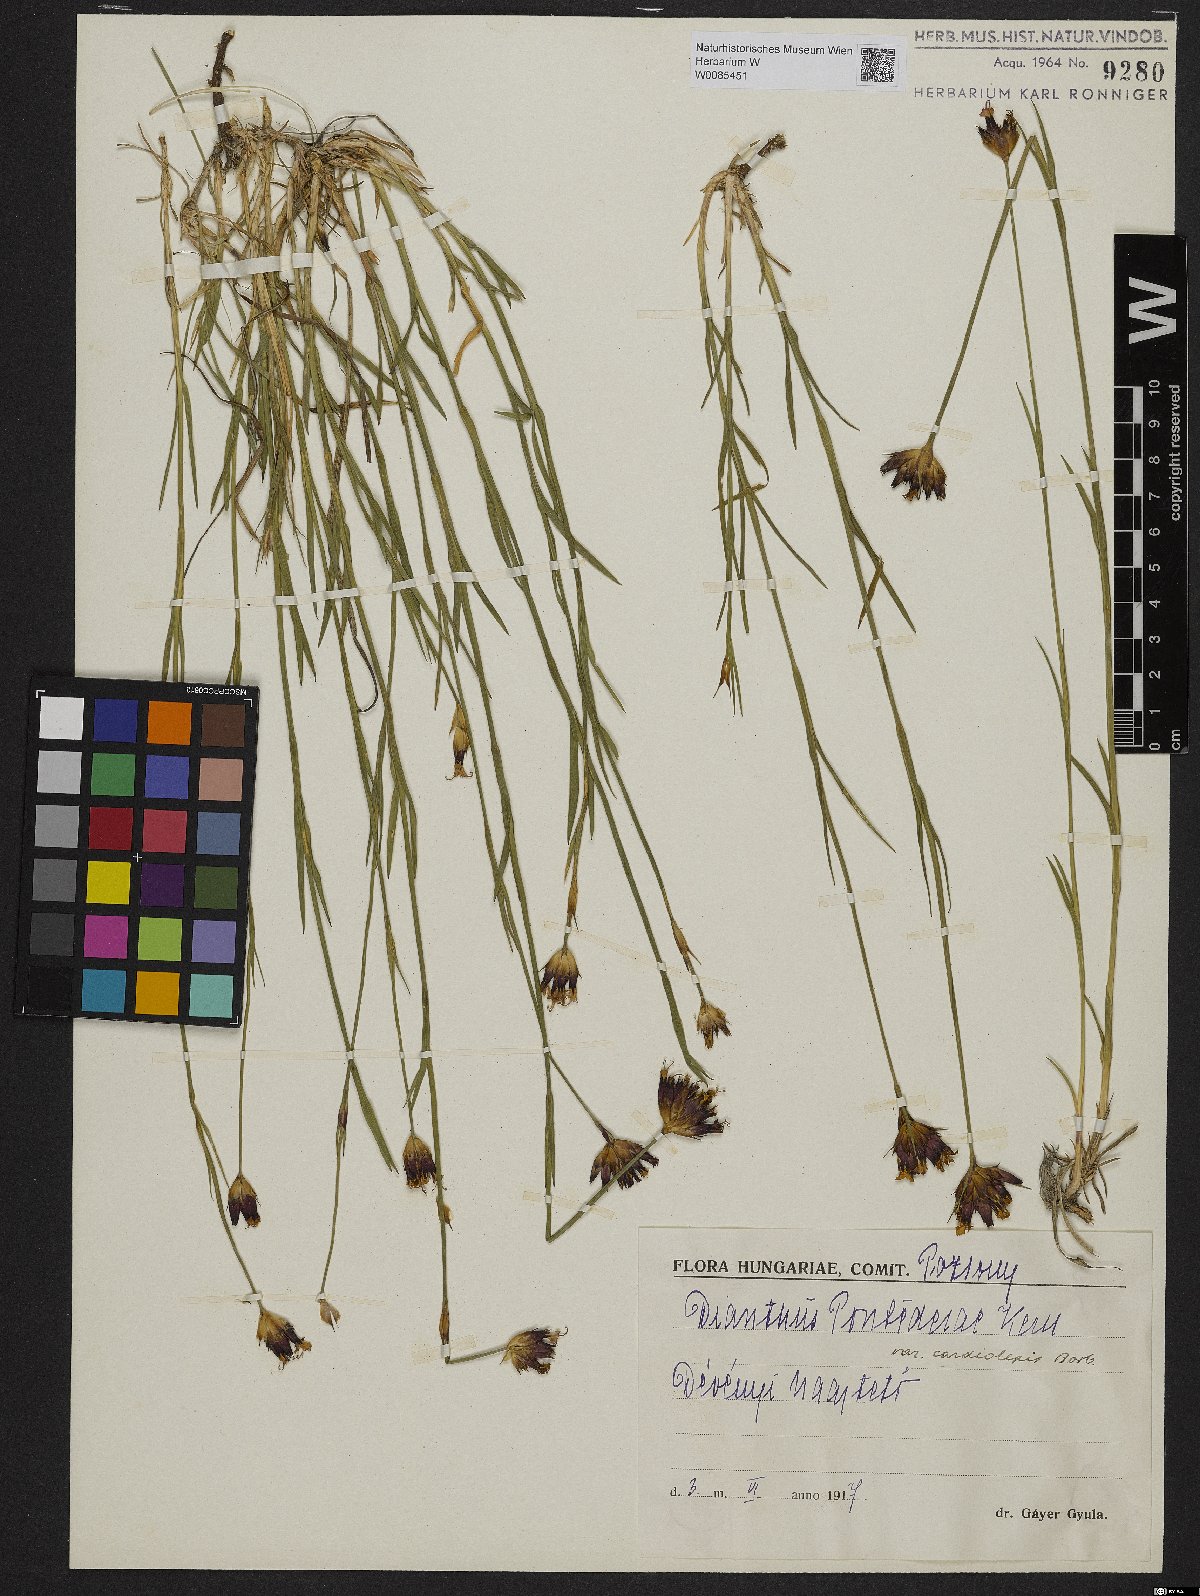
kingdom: Plantae
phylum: Tracheophyta
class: Magnoliopsida
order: Caryophyllales
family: Caryophyllaceae
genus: Dianthus
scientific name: Dianthus pontederae
